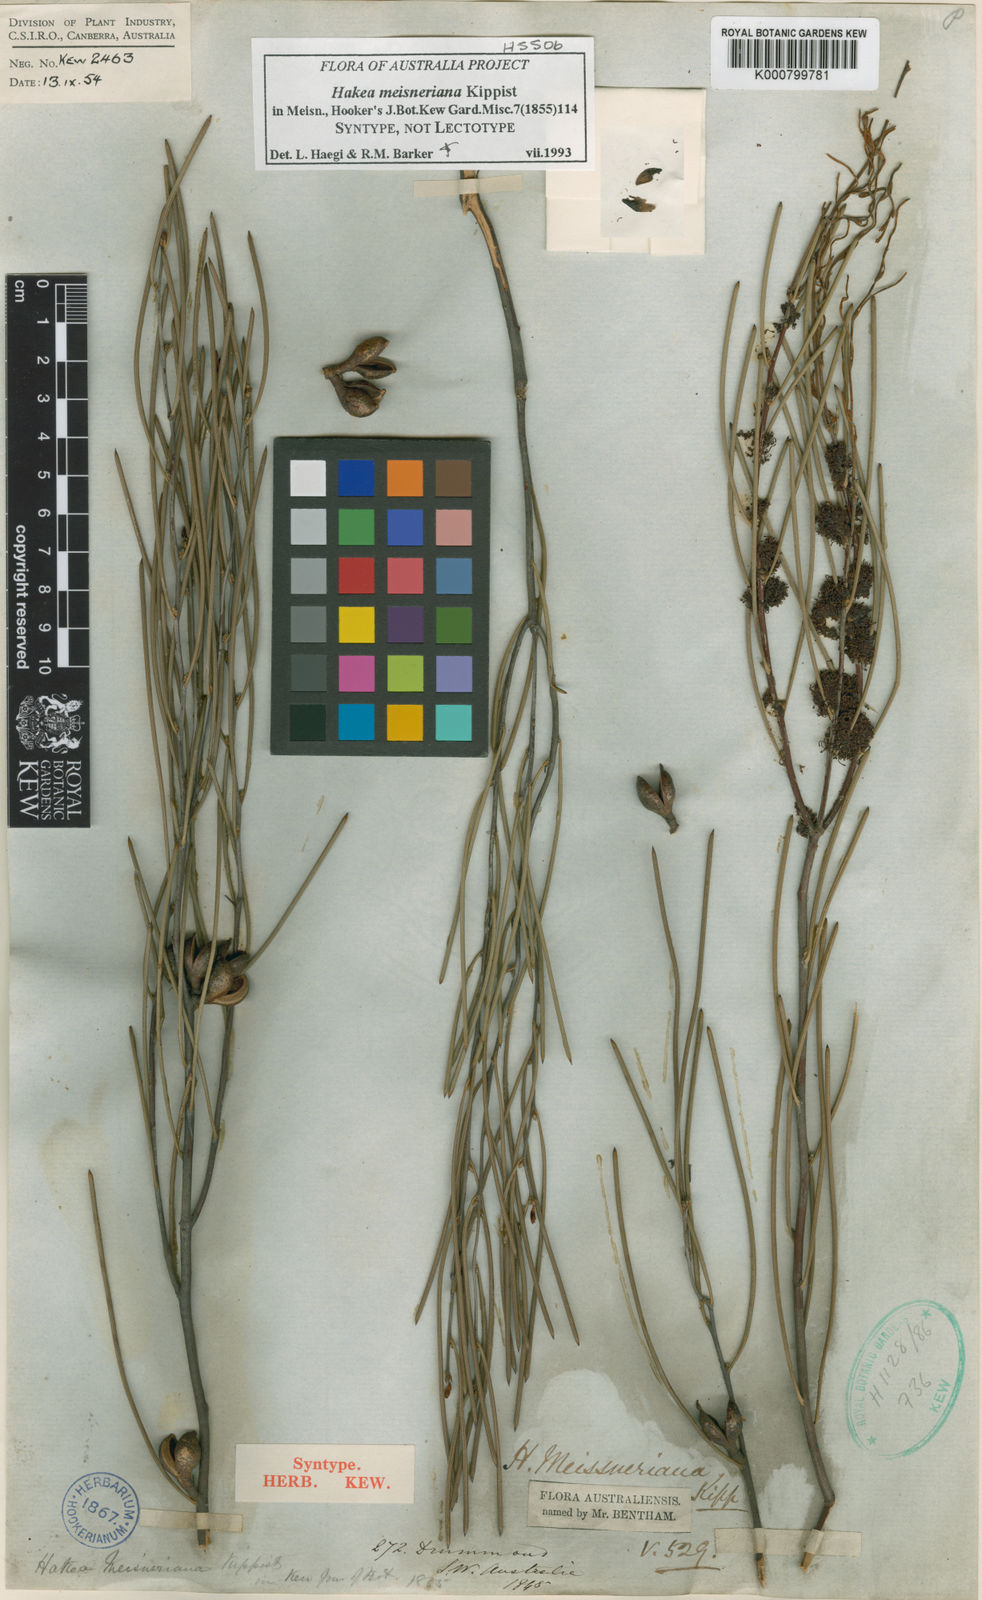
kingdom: Plantae
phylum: Tracheophyta
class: Magnoliopsida
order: Proteales
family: Proteaceae
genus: Hakea
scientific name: Hakea
